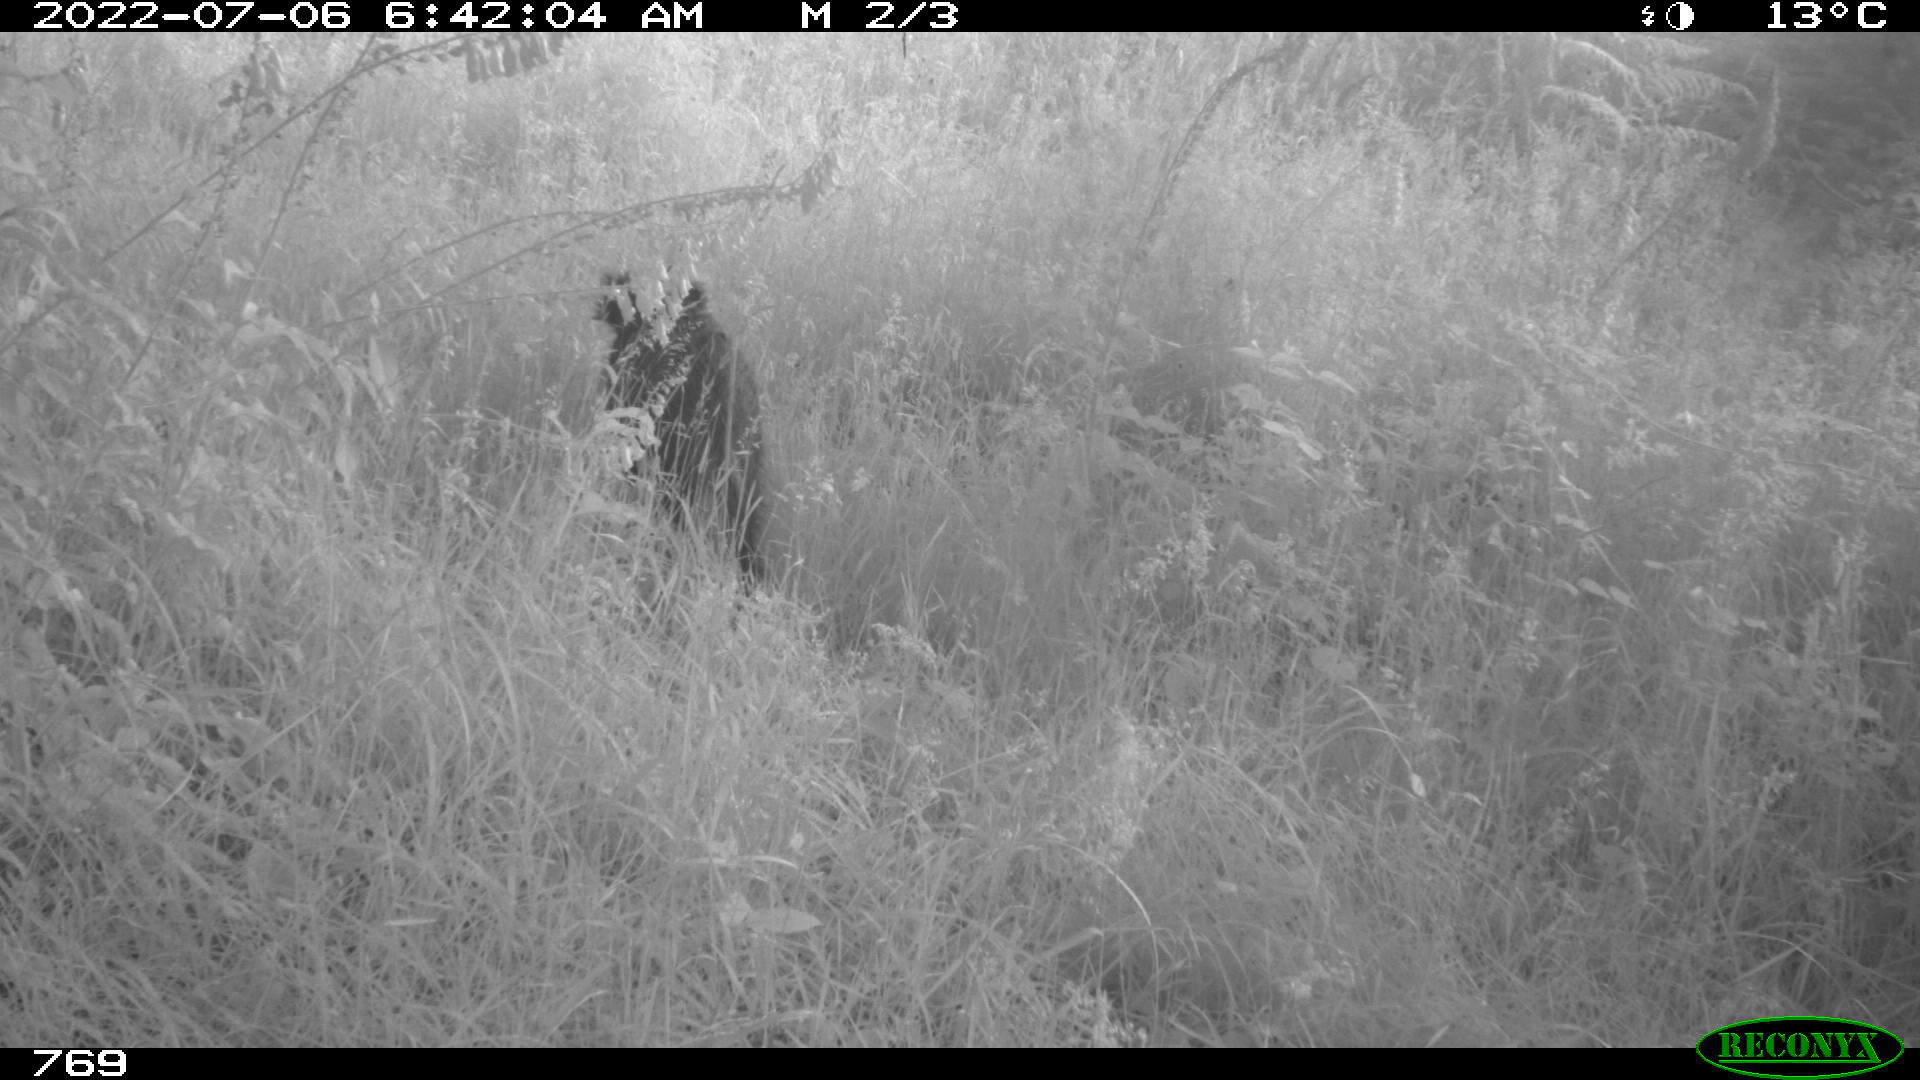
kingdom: Animalia
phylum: Chordata
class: Mammalia
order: Artiodactyla
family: Suidae
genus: Sus
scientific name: Sus scrofa
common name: Wild boar
